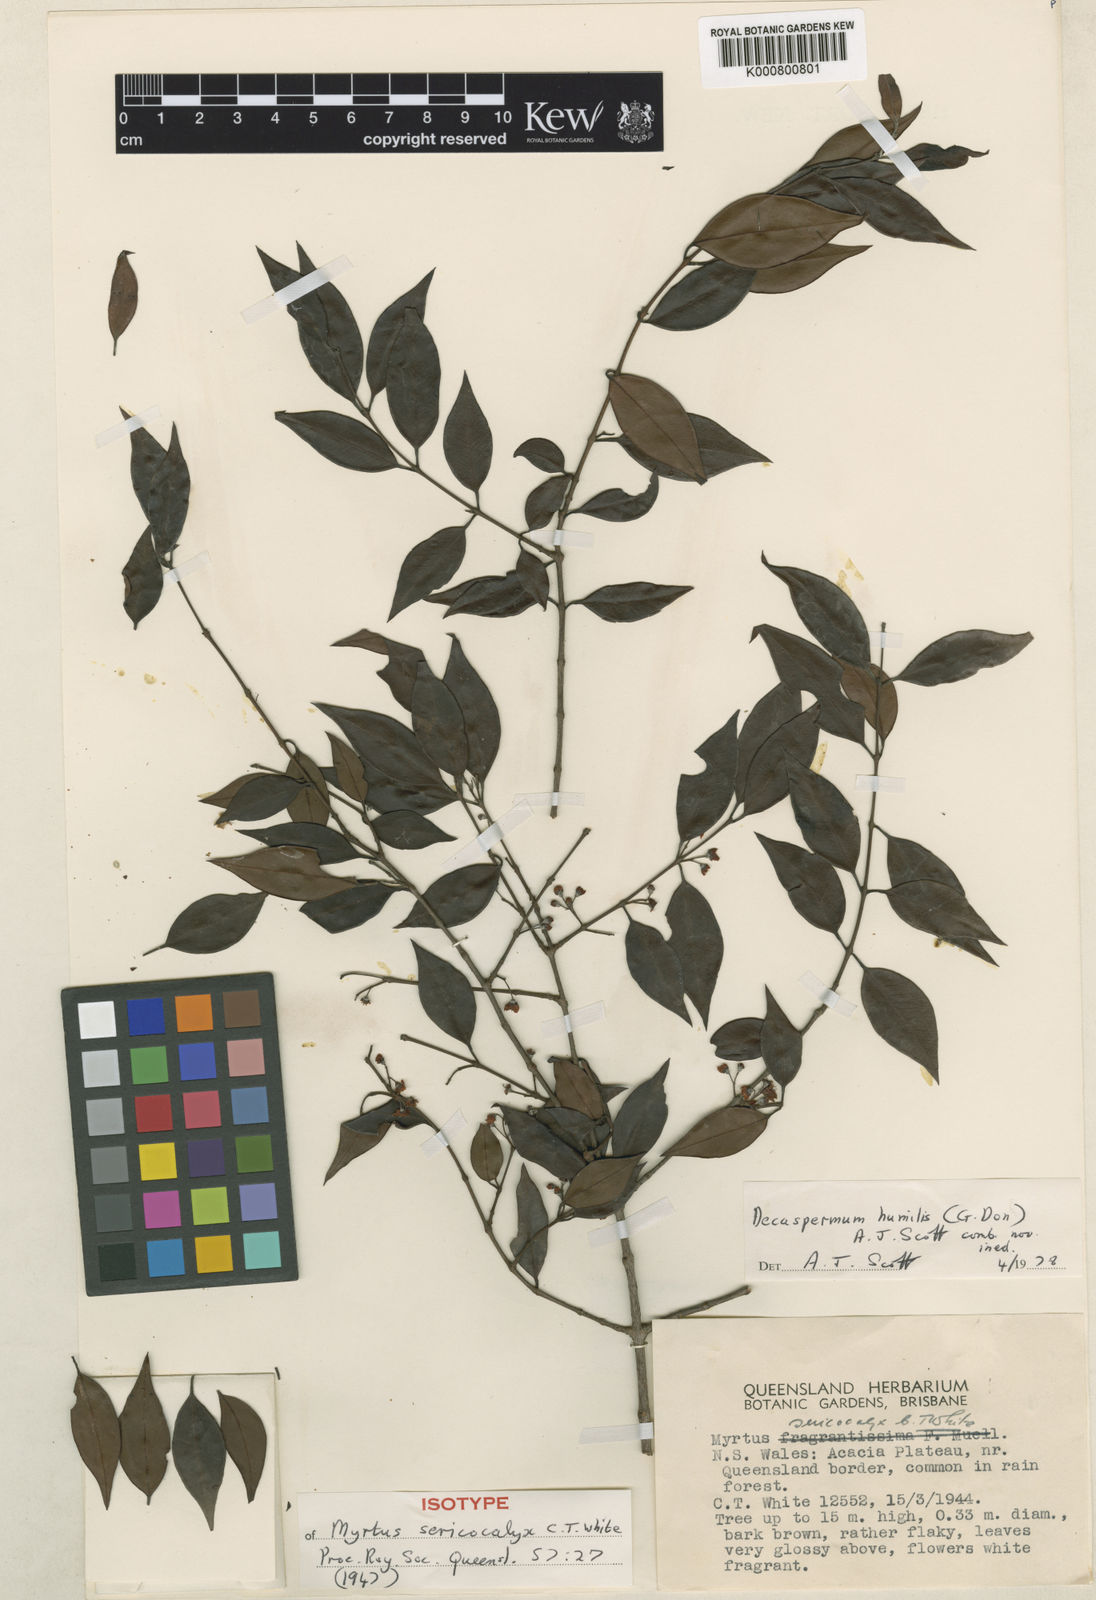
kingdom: Plantae
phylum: Tracheophyta
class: Magnoliopsida
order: Myrtales
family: Myrtaceae
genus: Decaspermum
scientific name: Decaspermum
